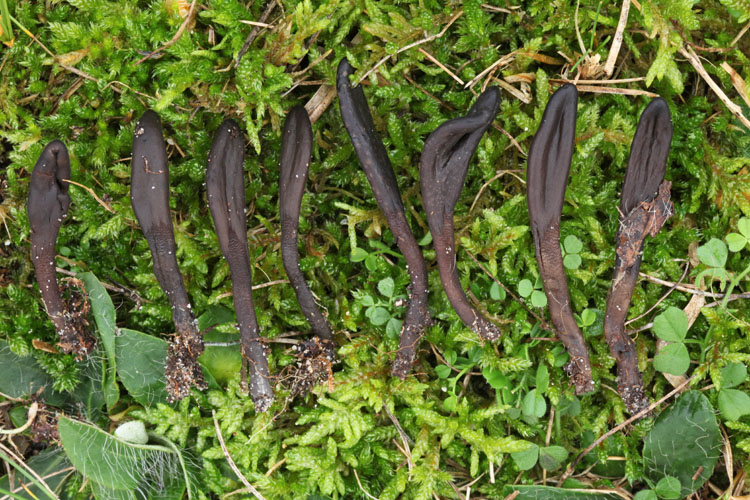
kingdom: Fungi
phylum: Ascomycota
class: Geoglossomycetes
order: Geoglossales
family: Geoglossaceae
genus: Hemileucoglossum
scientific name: Hemileucoglossum elongatum
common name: småsporet jordtunge
